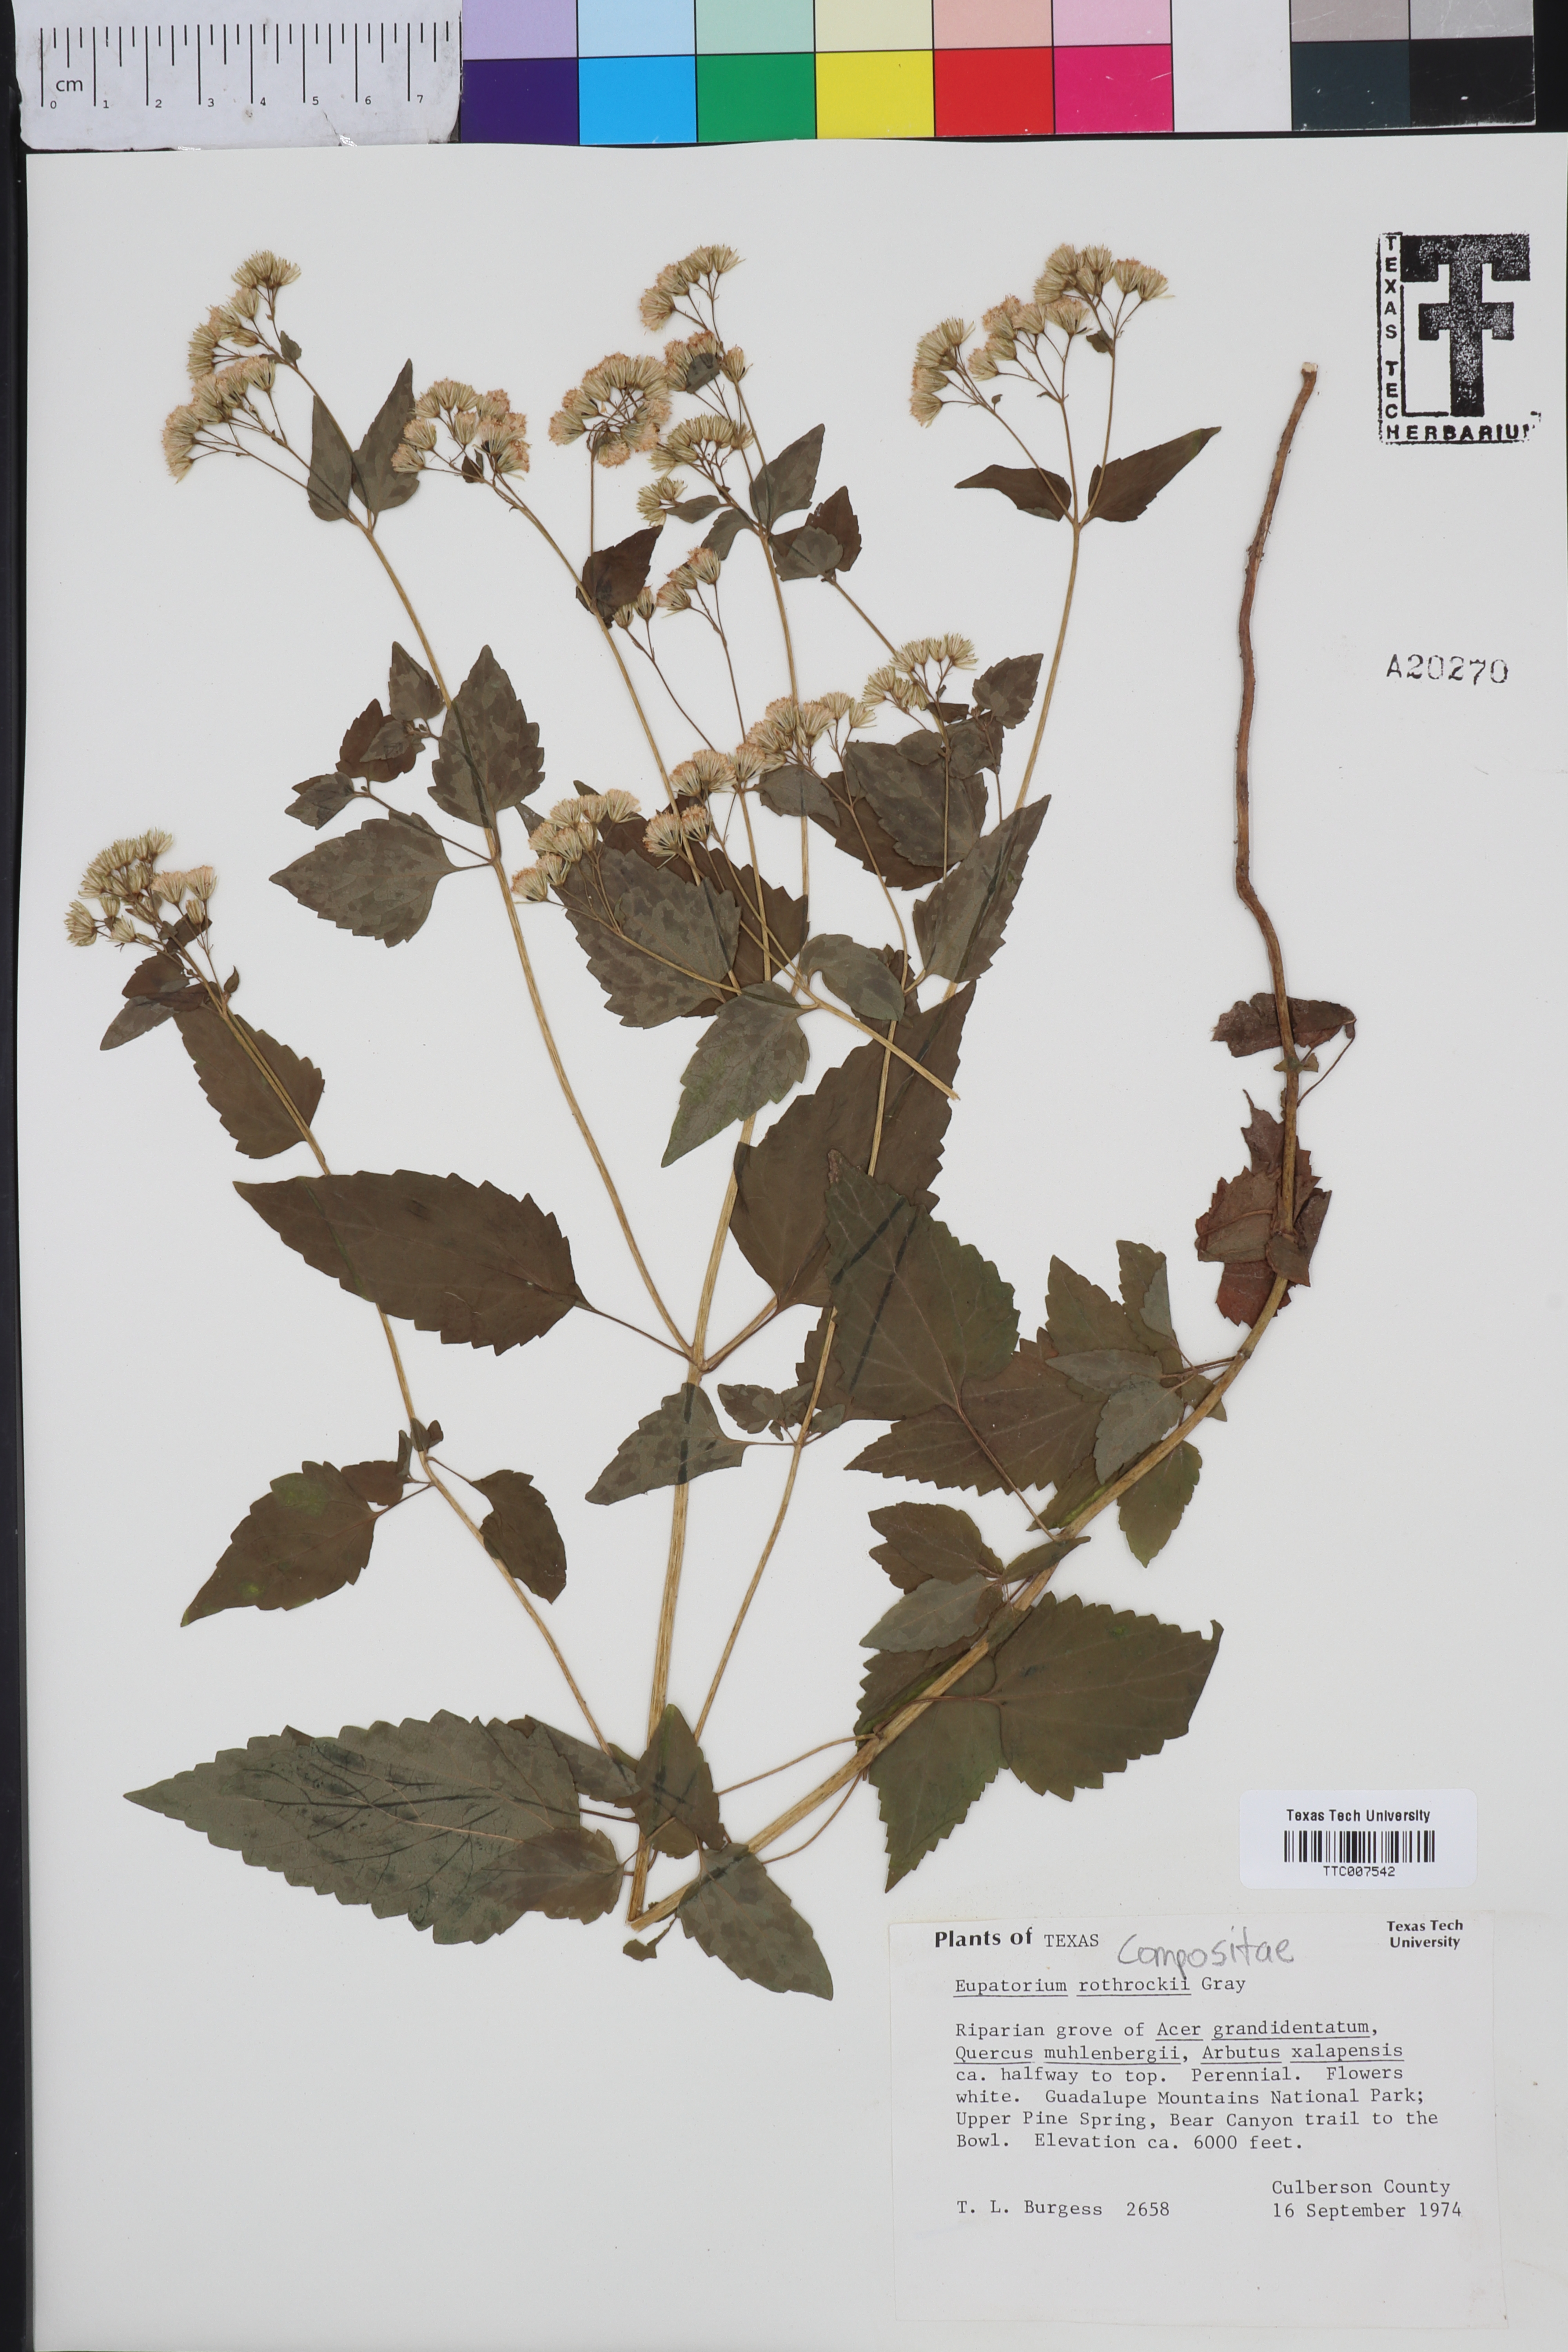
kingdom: Plantae
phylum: Tracheophyta
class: Magnoliopsida
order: Asterales
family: Asteraceae
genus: Ageratina
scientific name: Ageratina rothrockii
